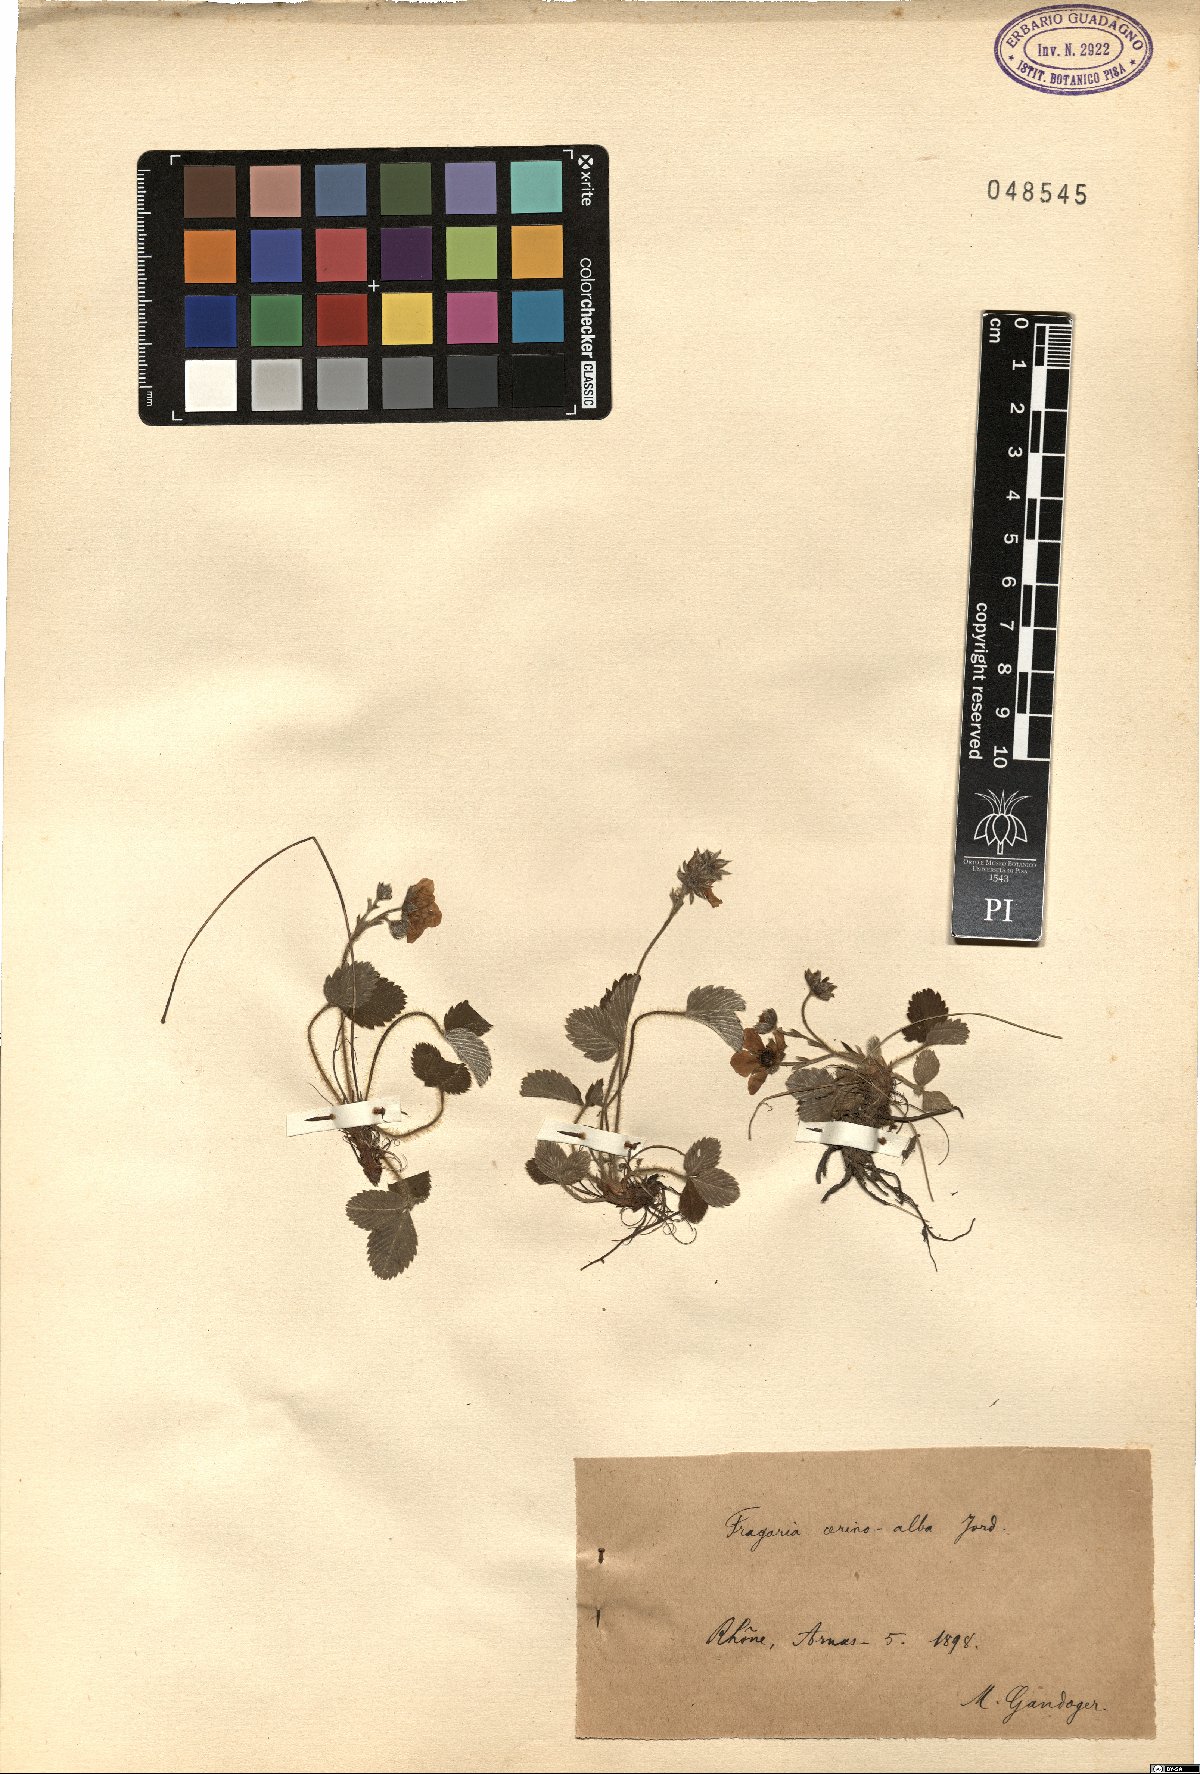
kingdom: Plantae
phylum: Tracheophyta
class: Magnoliopsida
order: Rosales
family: Rosaceae
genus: Fragaria
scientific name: Fragaria viridis
